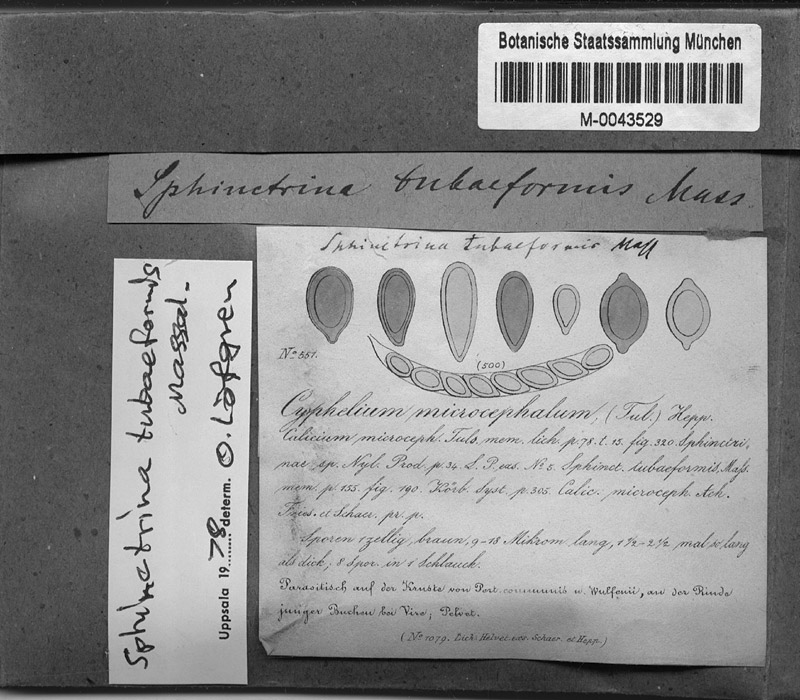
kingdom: Fungi
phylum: Ascomycota
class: Lecanoromycetes
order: Pertusariales
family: Pertusariaceae
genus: Pertusaria
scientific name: Pertusaria pertusa
